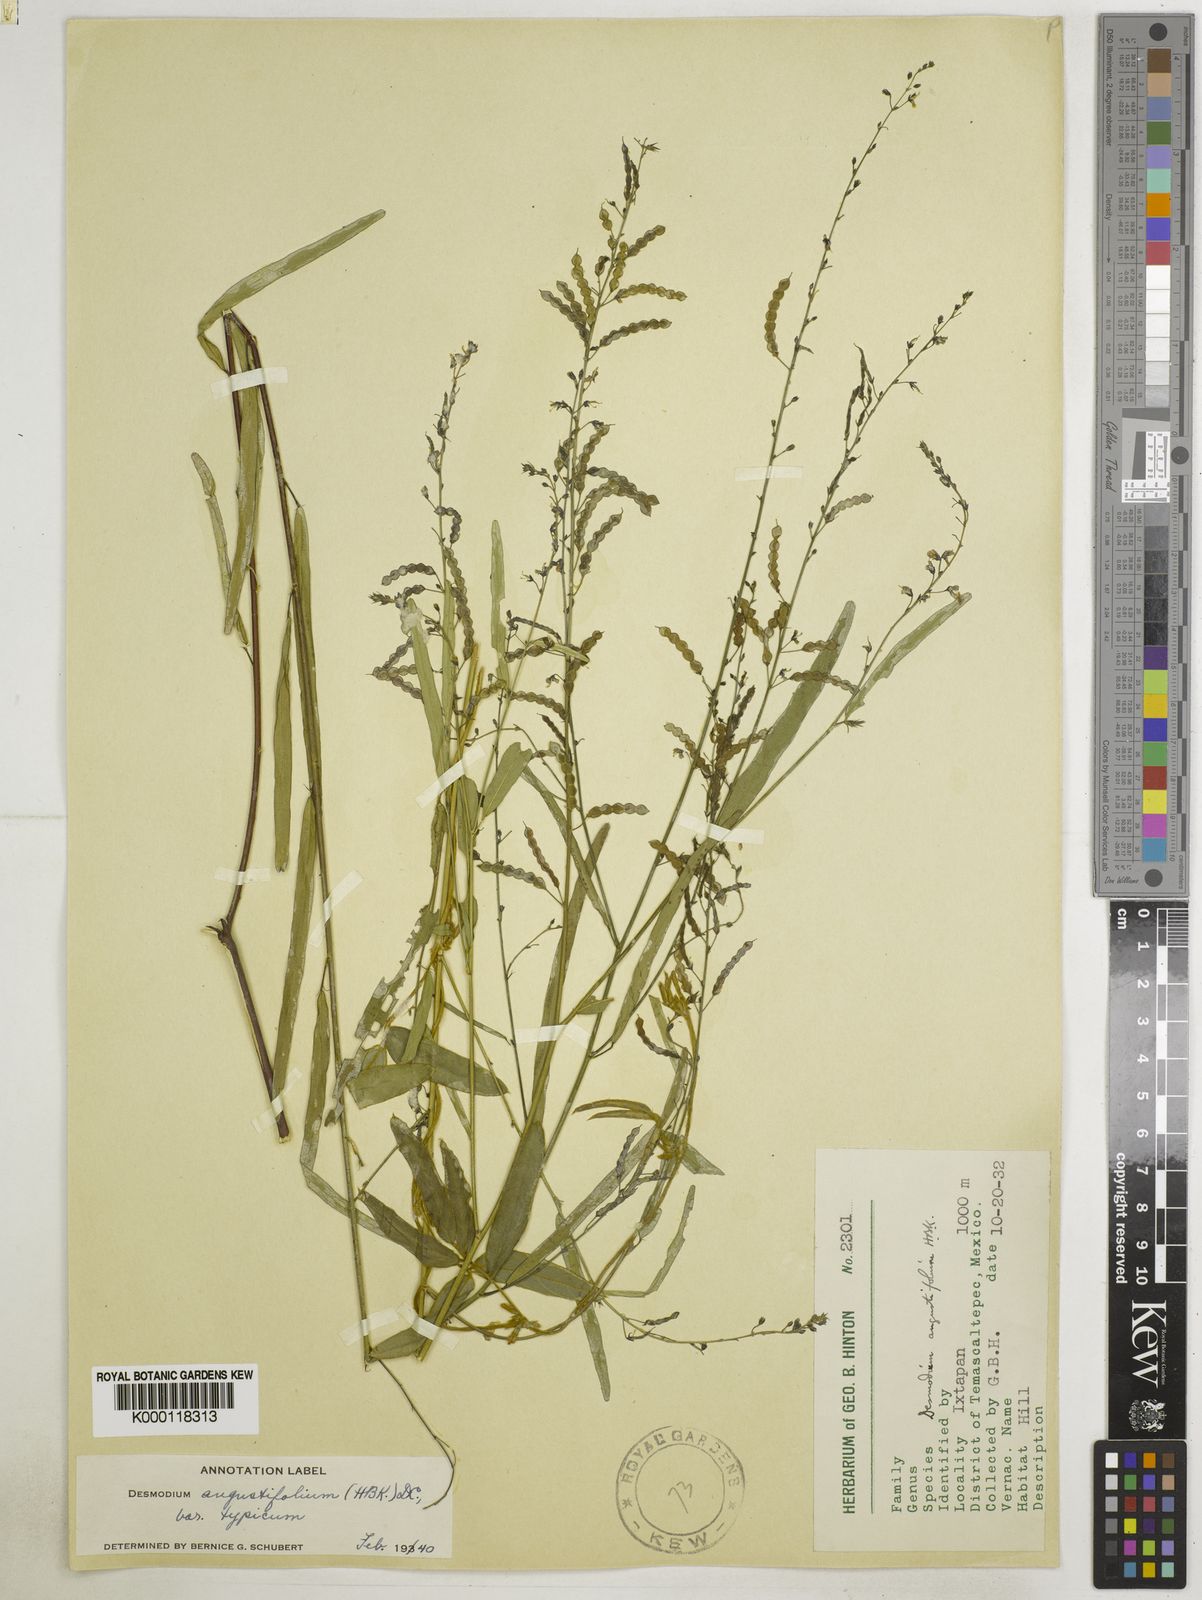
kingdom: Plantae
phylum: Tracheophyta
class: Magnoliopsida
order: Fabales
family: Fabaceae
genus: Desmodium
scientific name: Desmodium angustifolium
